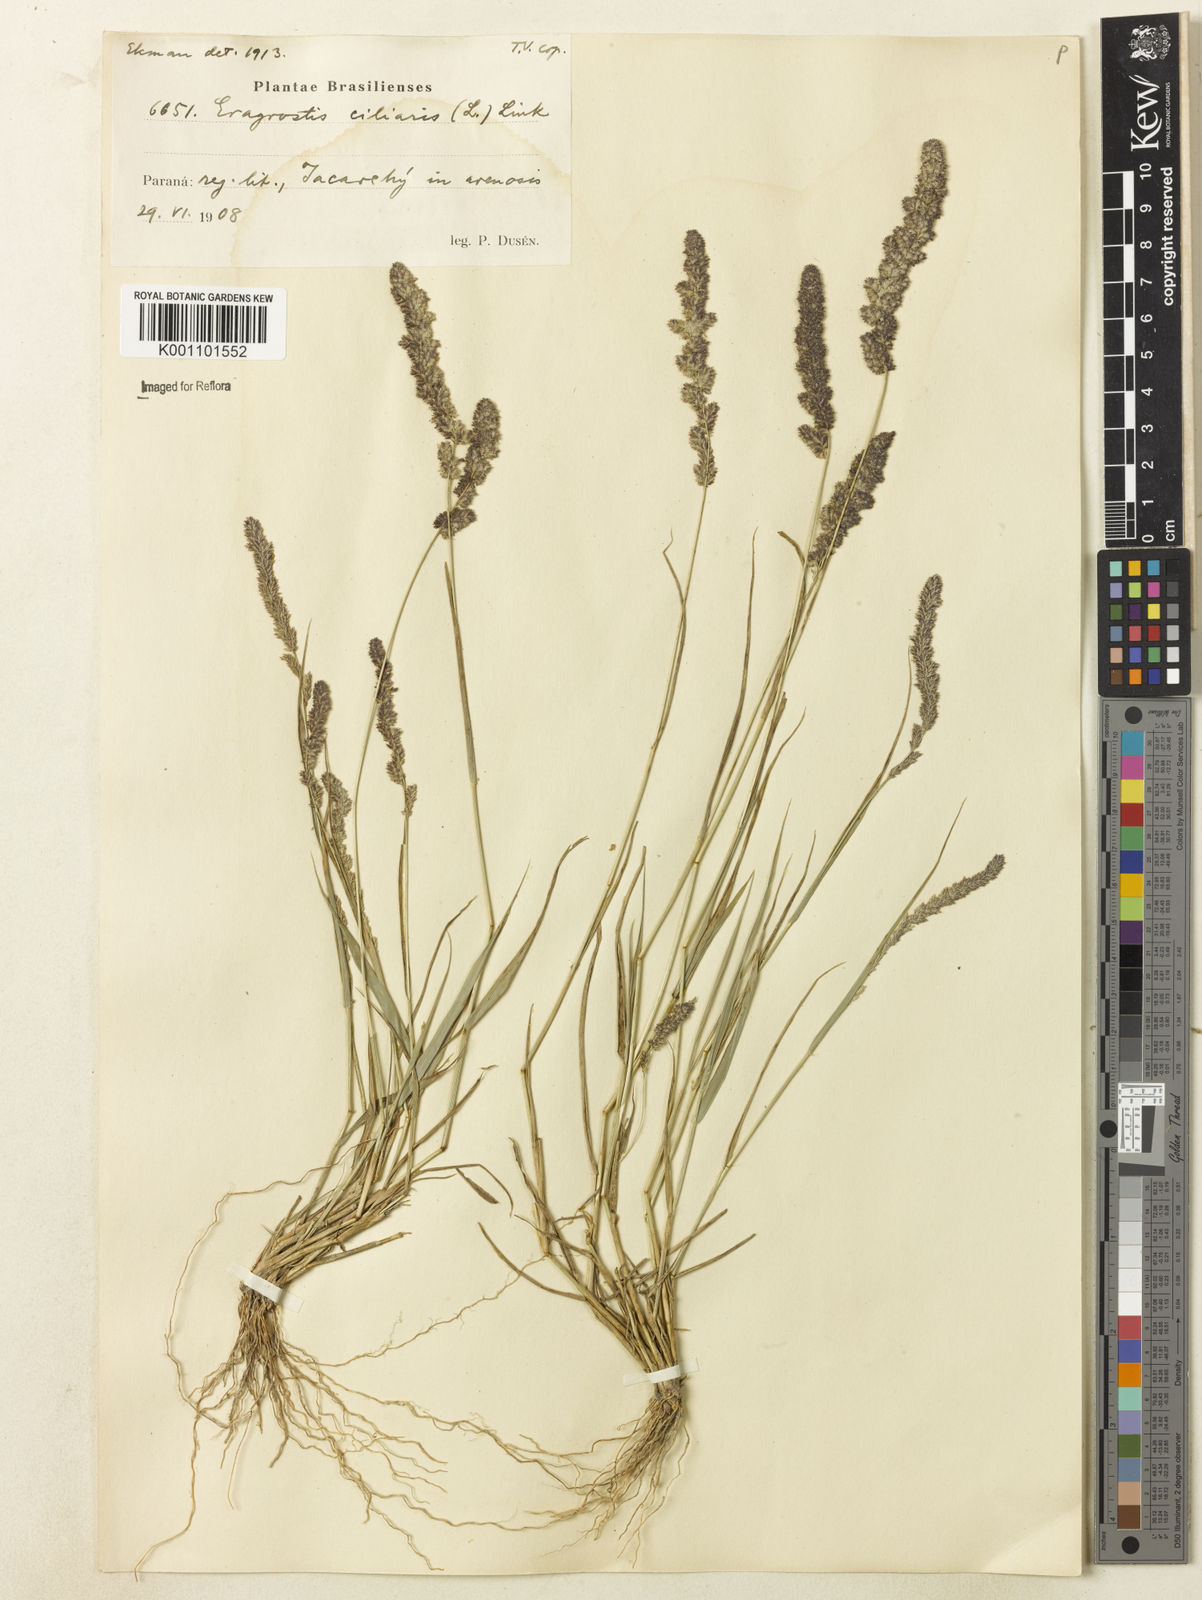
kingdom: Plantae
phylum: Tracheophyta
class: Liliopsida
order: Poales
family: Poaceae
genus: Eragrostis
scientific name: Eragrostis ciliaris
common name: Gophertail lovegrass
